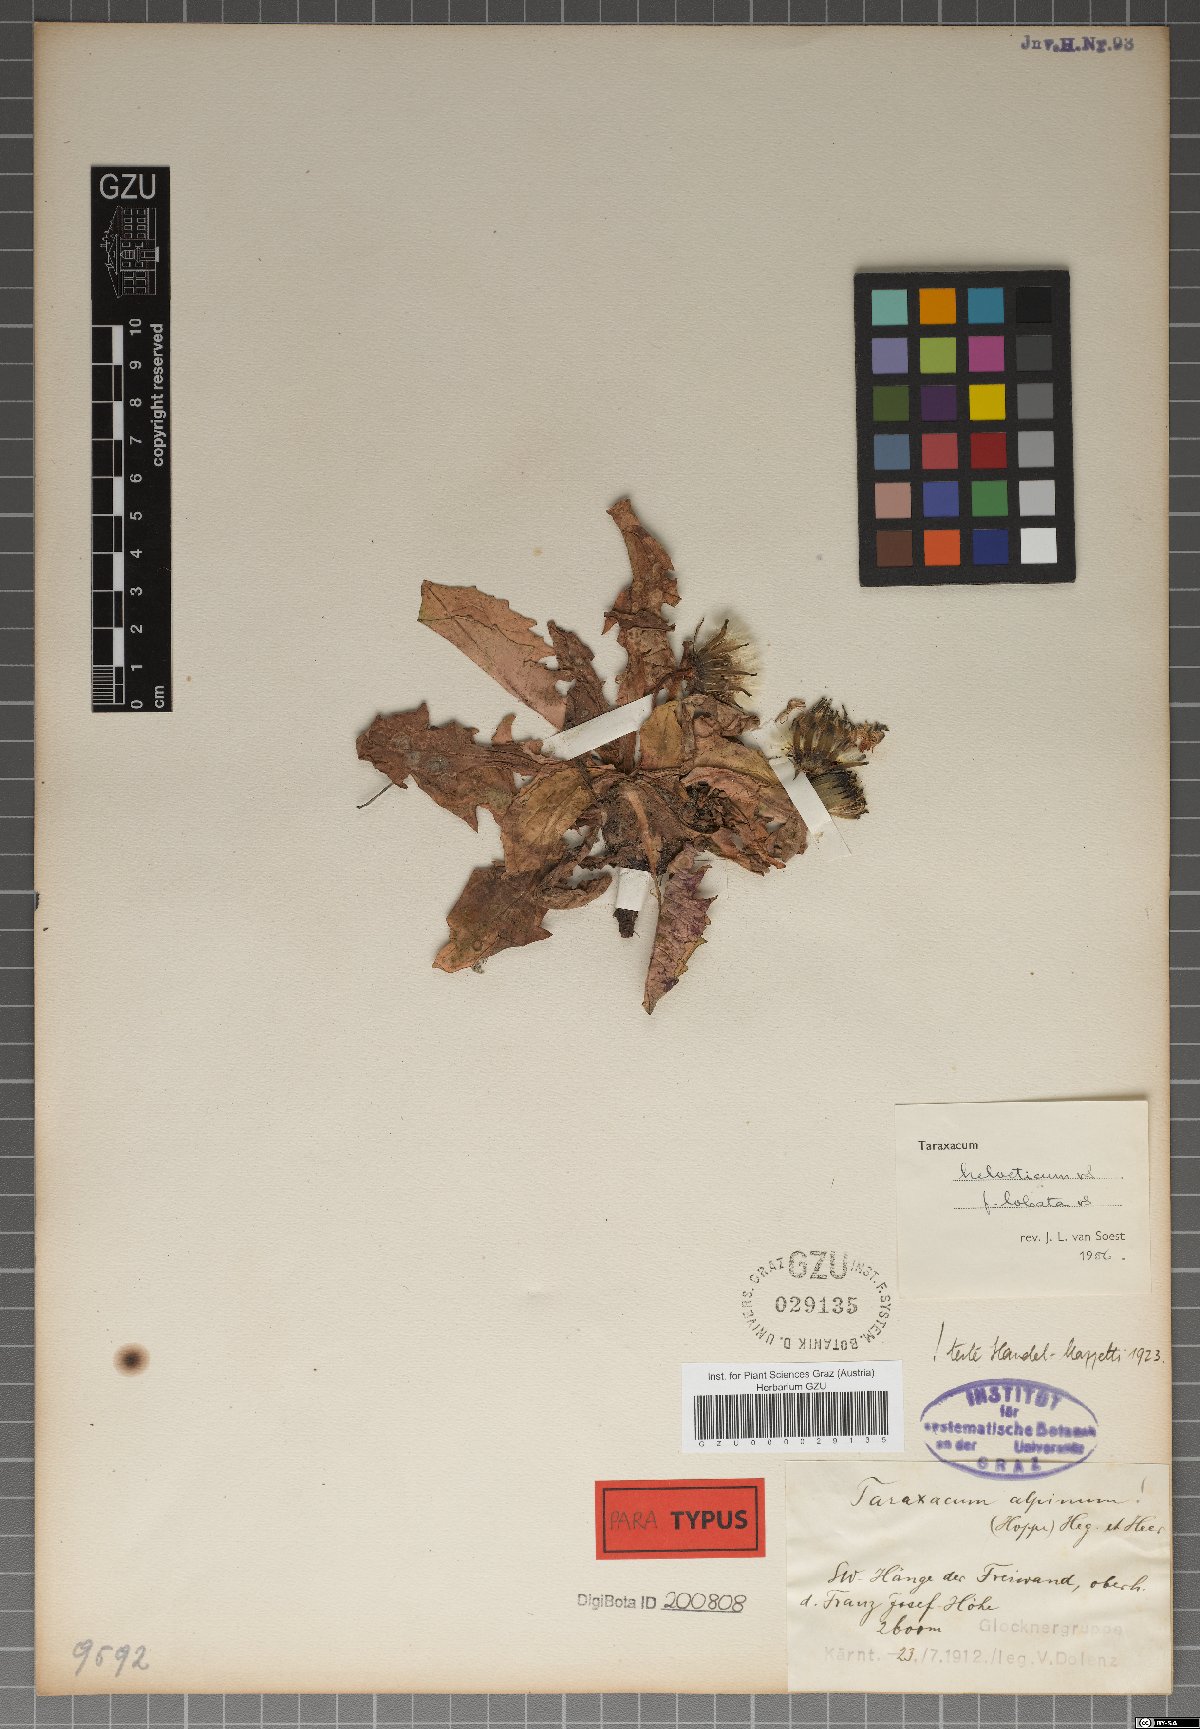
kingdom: Plantae
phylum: Tracheophyta
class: Magnoliopsida
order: Asterales
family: Asteraceae
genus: Taraxacum
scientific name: Taraxacum helveticum
